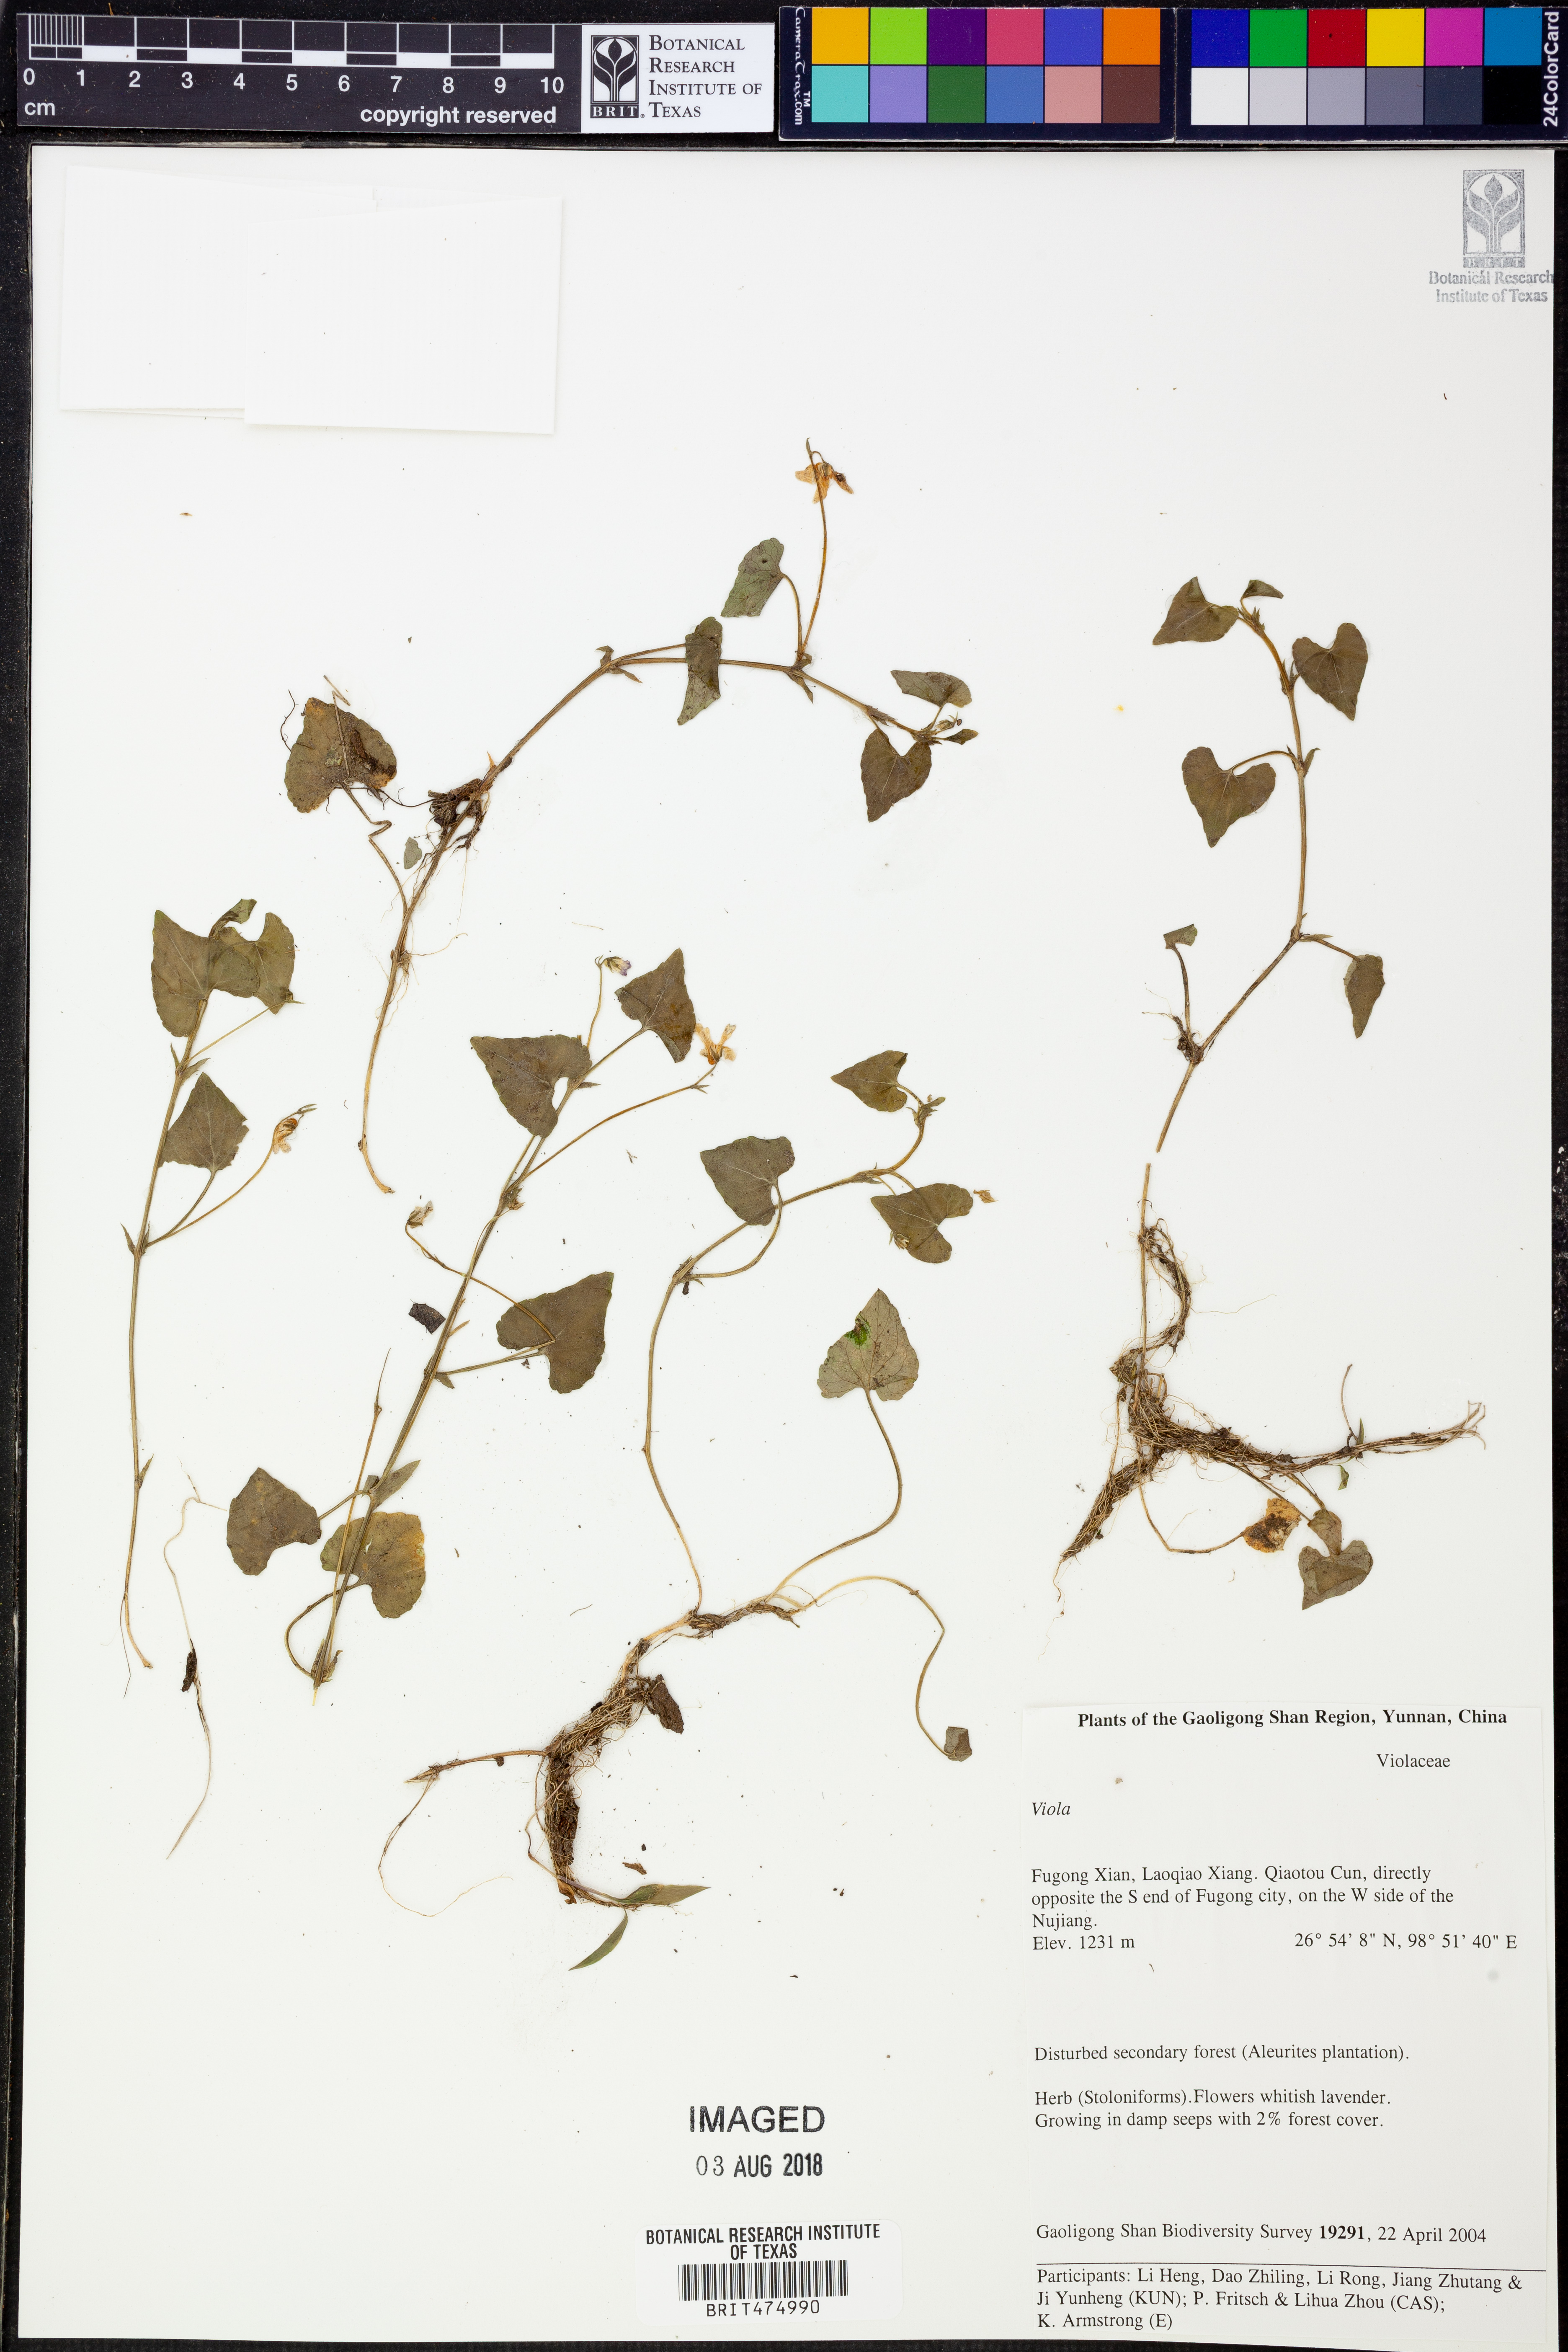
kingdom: Plantae
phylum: Tracheophyta
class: Magnoliopsida
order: Malpighiales
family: Violaceae
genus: Viola
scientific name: Viola
